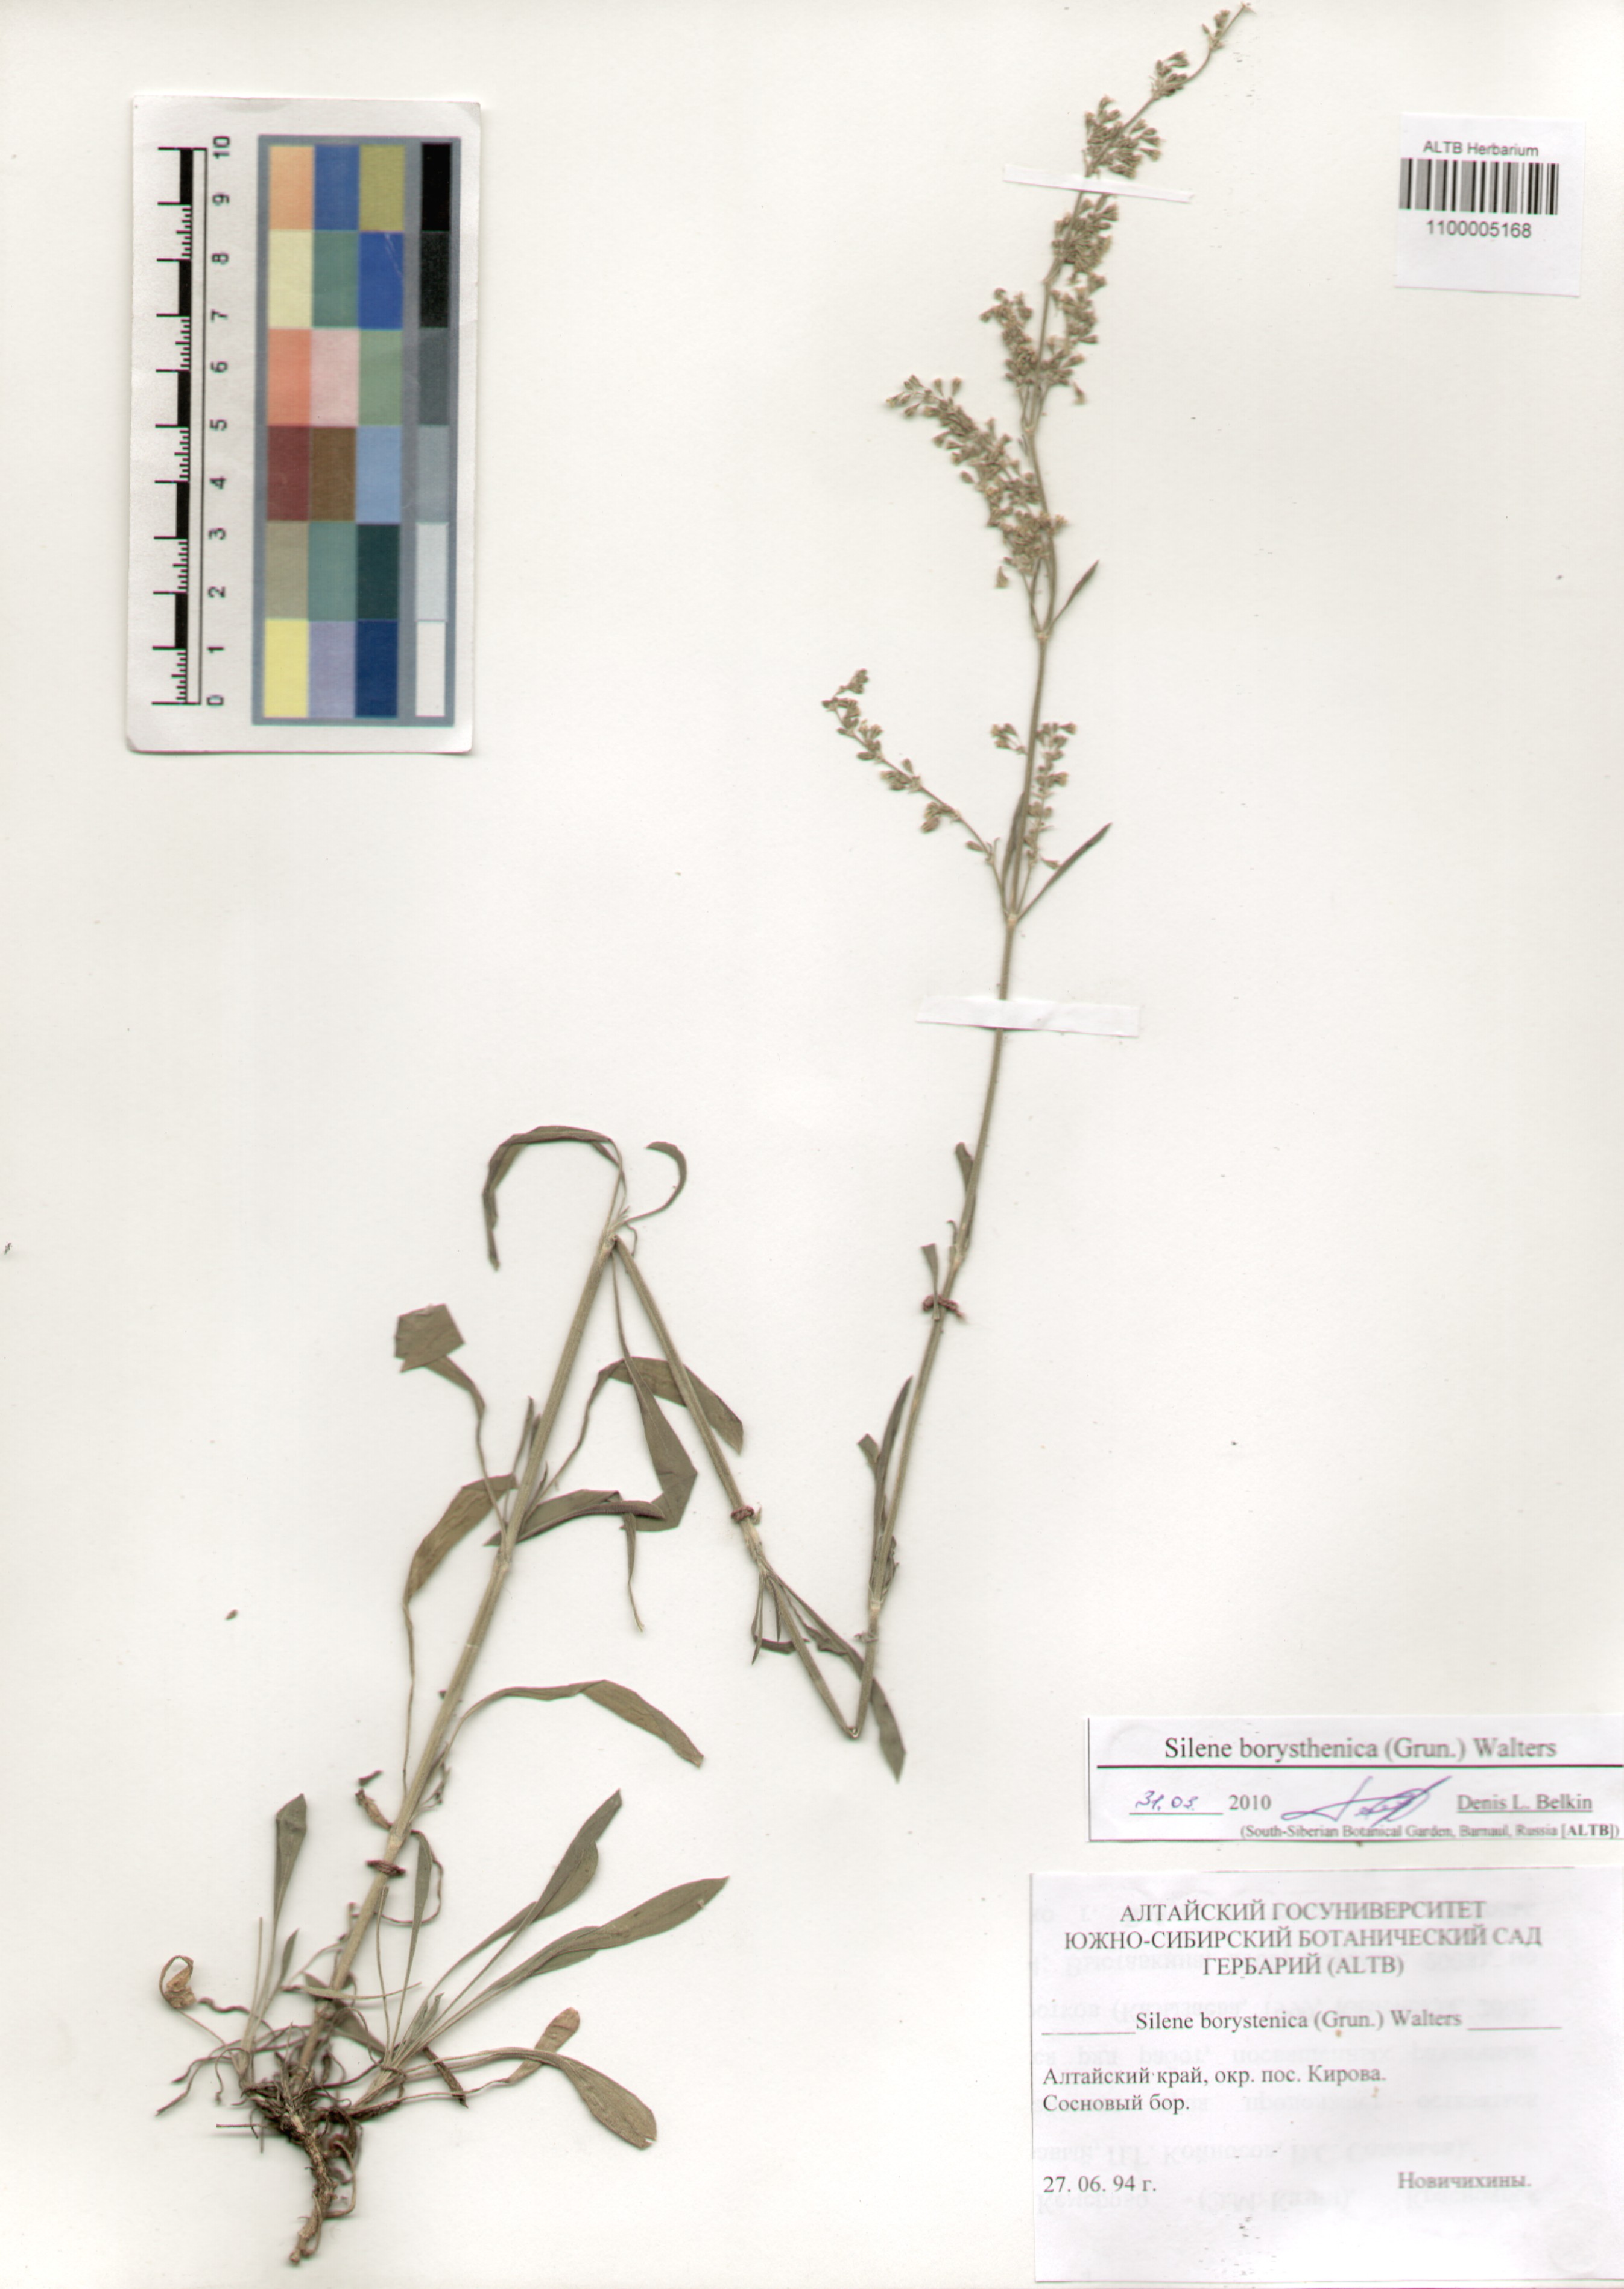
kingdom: Plantae
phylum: Tracheophyta
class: Magnoliopsida
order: Caryophyllales
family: Caryophyllaceae
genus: Silene
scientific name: Silene borysthenica
